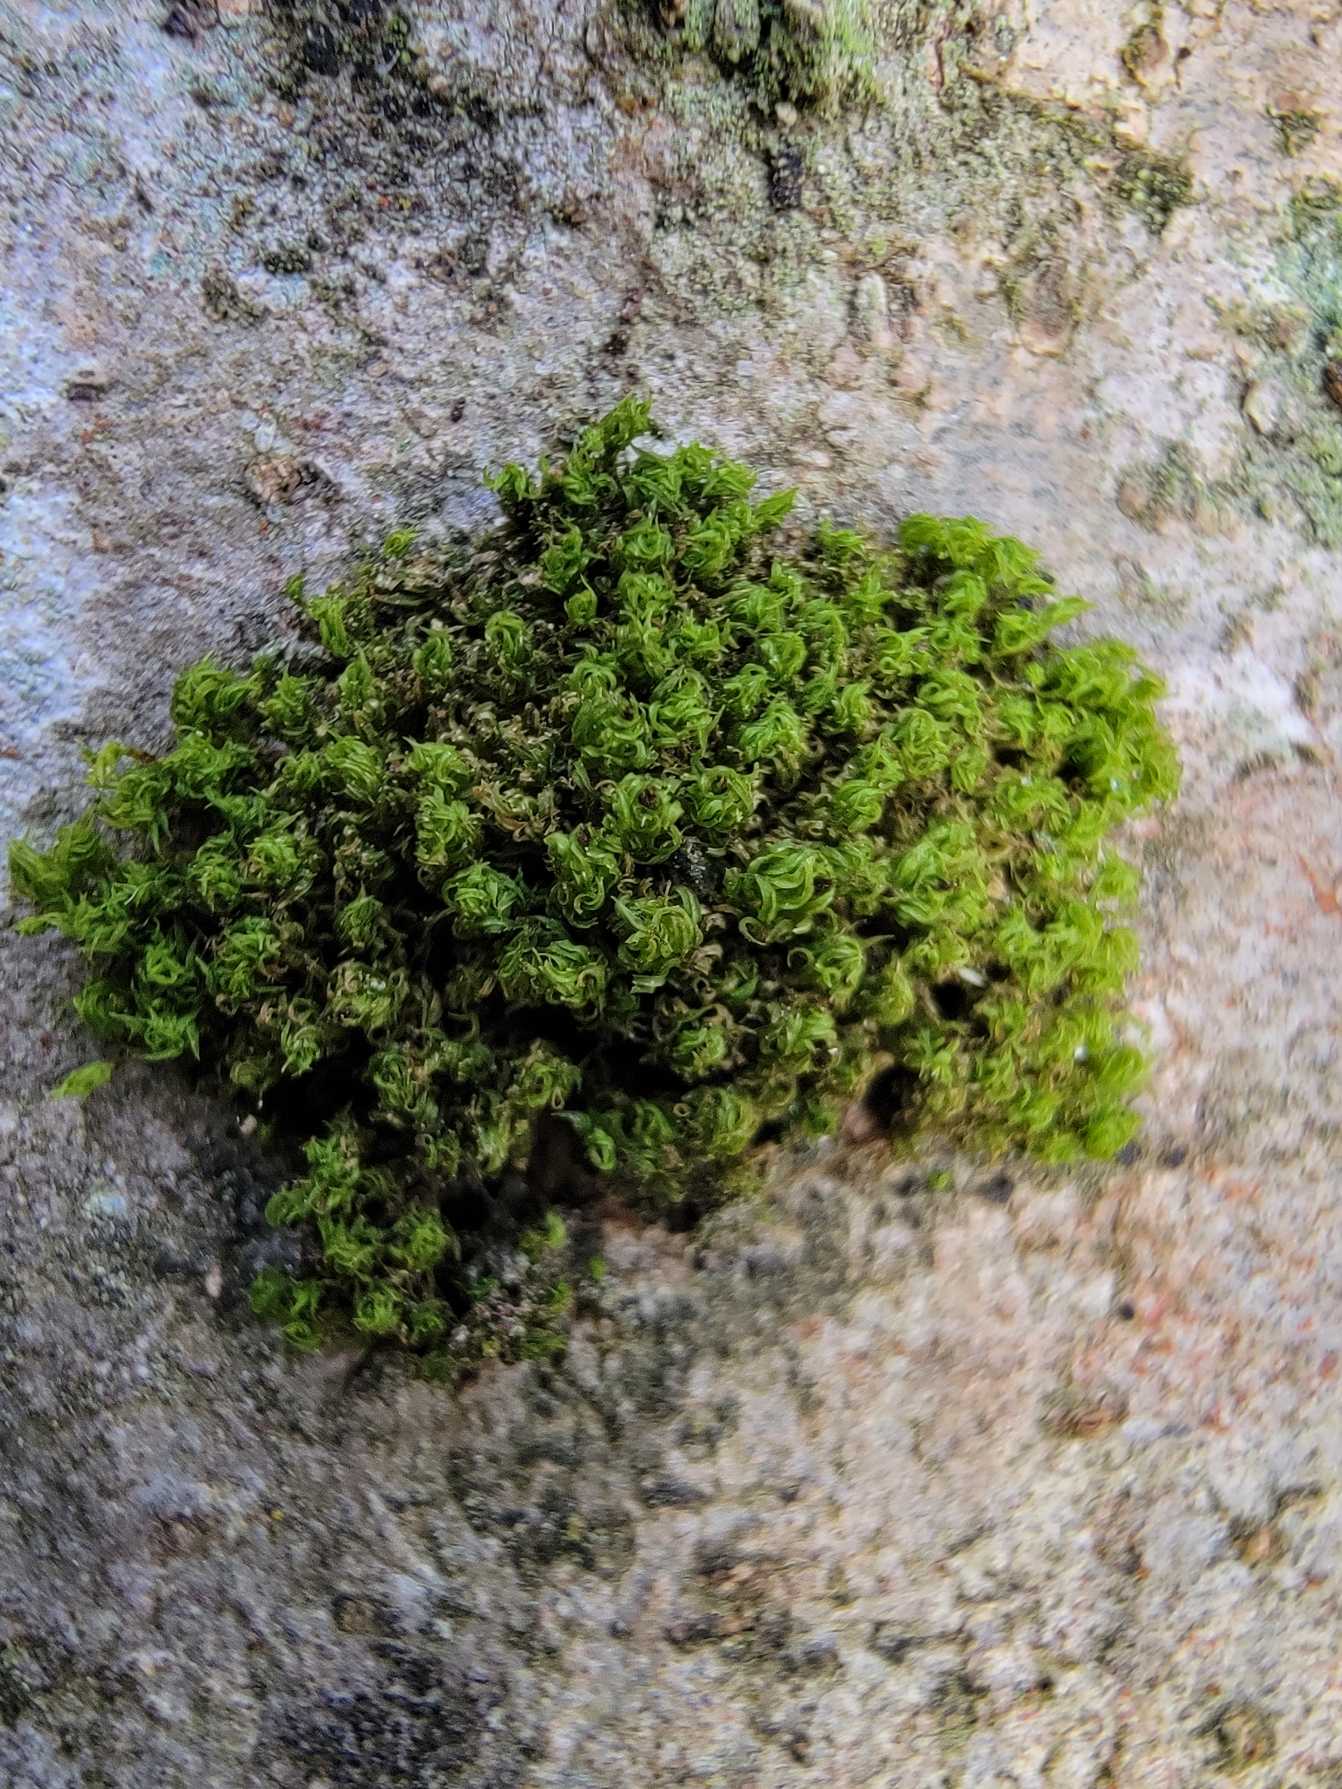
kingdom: Plantae
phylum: Bryophyta
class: Bryopsida
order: Orthotrichales
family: Orthotrichaceae
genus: Plenogemma
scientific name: Plenogemma phyllantha
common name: Stor låddenhætte
